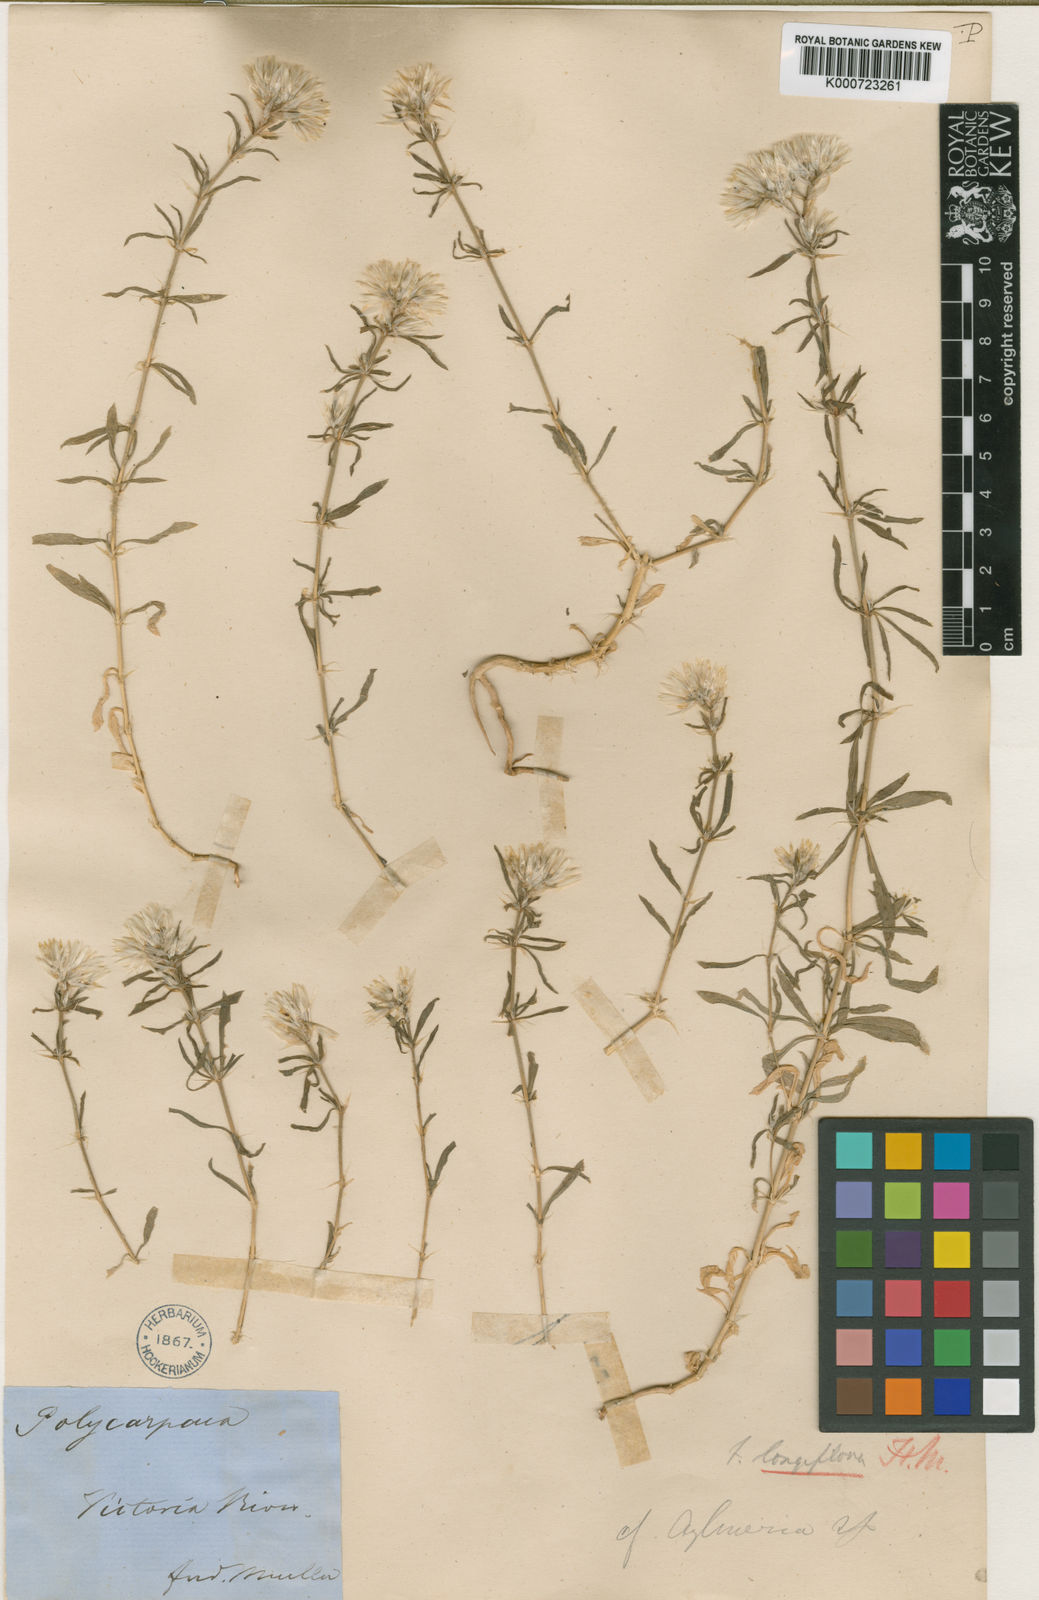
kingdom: Plantae
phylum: Tracheophyta
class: Magnoliopsida
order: Caryophyllales
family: Caryophyllaceae
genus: Polycarpaea
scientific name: Polycarpaea longiflora
